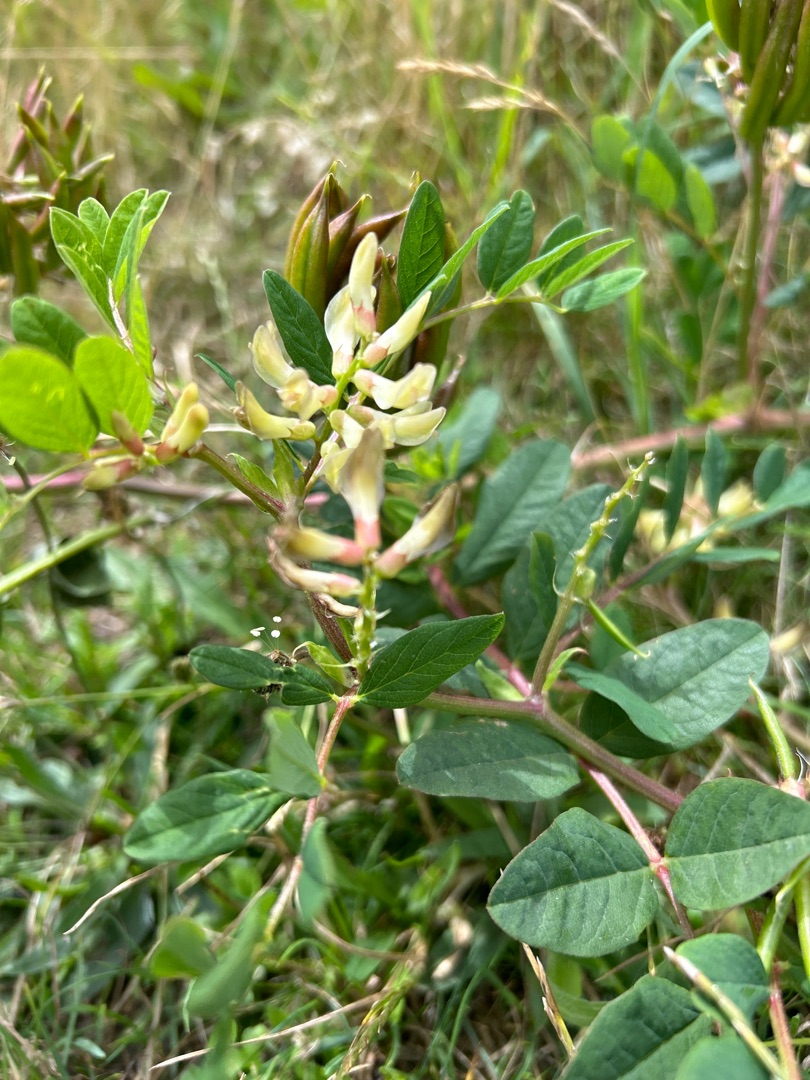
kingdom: Plantae
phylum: Tracheophyta
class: Magnoliopsida
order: Fabales
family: Fabaceae
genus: Astragalus
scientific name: Astragalus glycyphyllos
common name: Sød astragel
